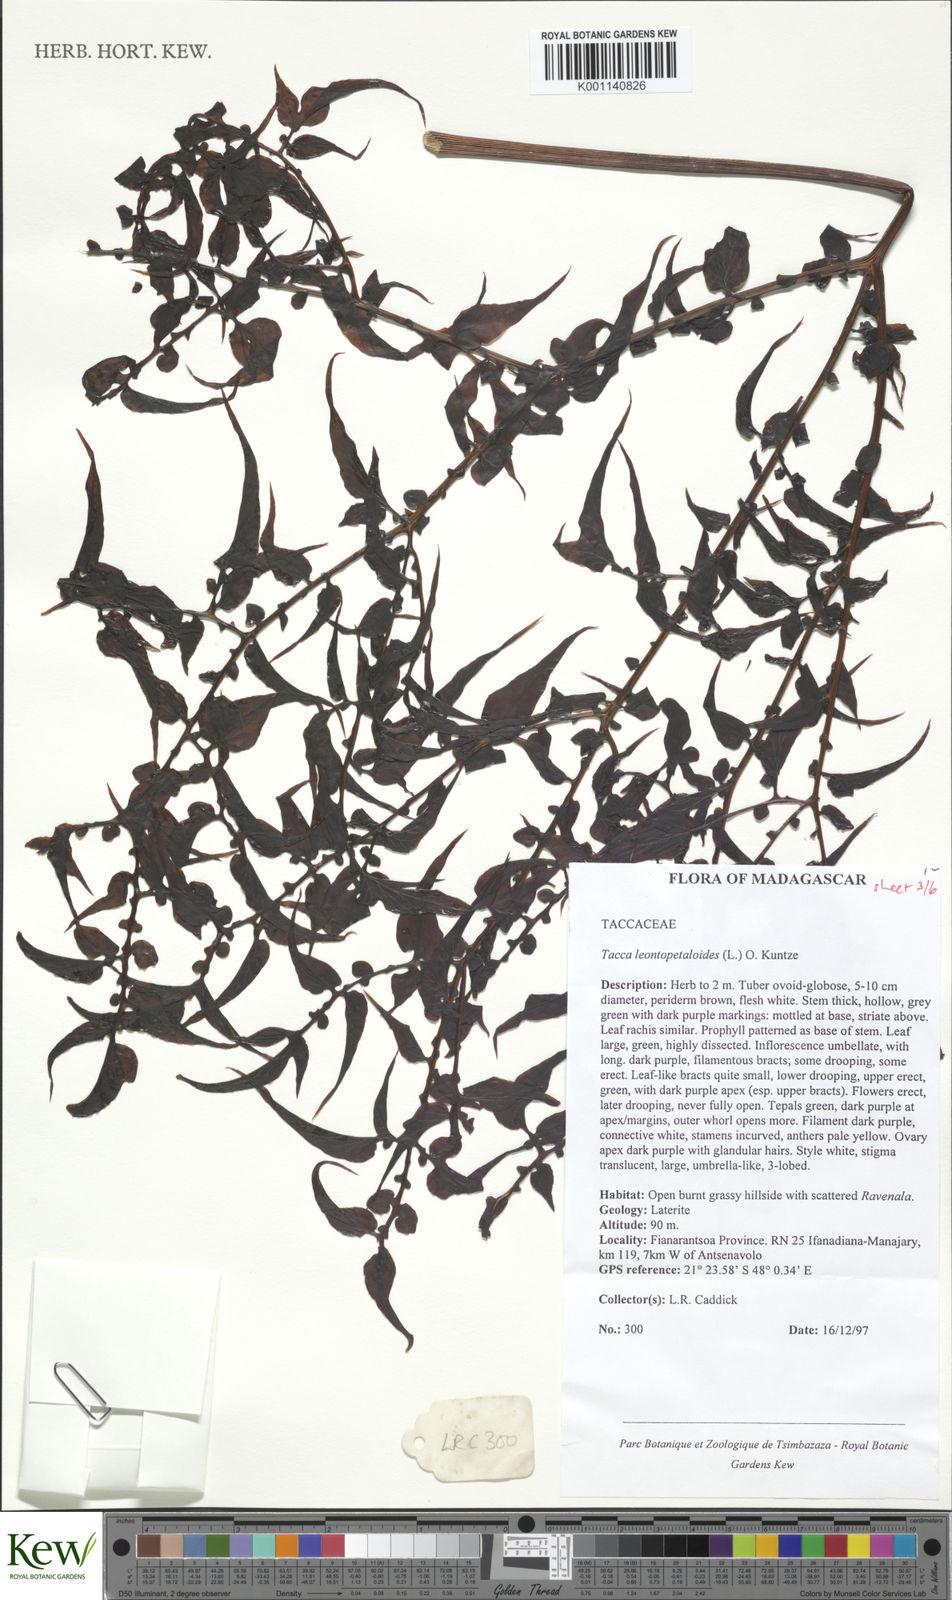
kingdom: Plantae
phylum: Tracheophyta
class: Liliopsida
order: Dioscoreales
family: Dioscoreaceae
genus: Tacca
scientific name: Tacca leontopetaloides
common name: Arrowroot
